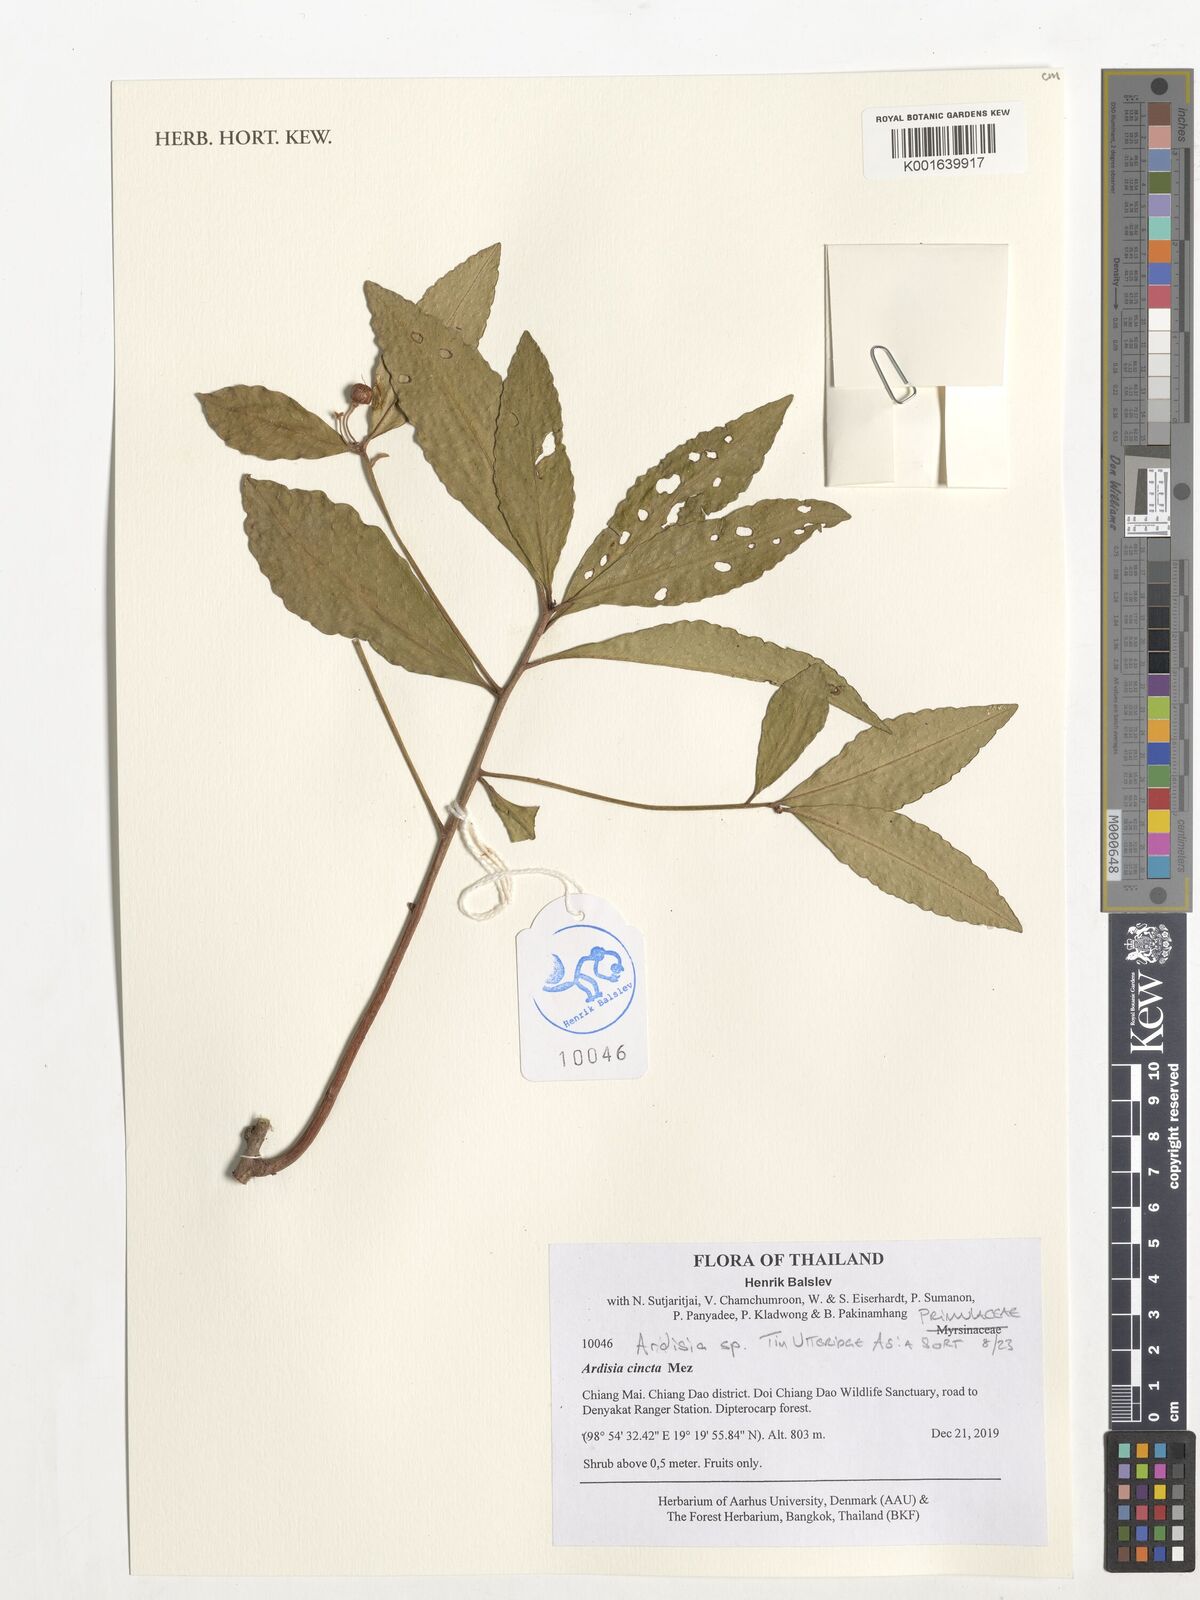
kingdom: Plantae
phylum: Tracheophyta
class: Magnoliopsida
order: Ericales
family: Ericaceae
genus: Cyathodes
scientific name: Cyathodes
